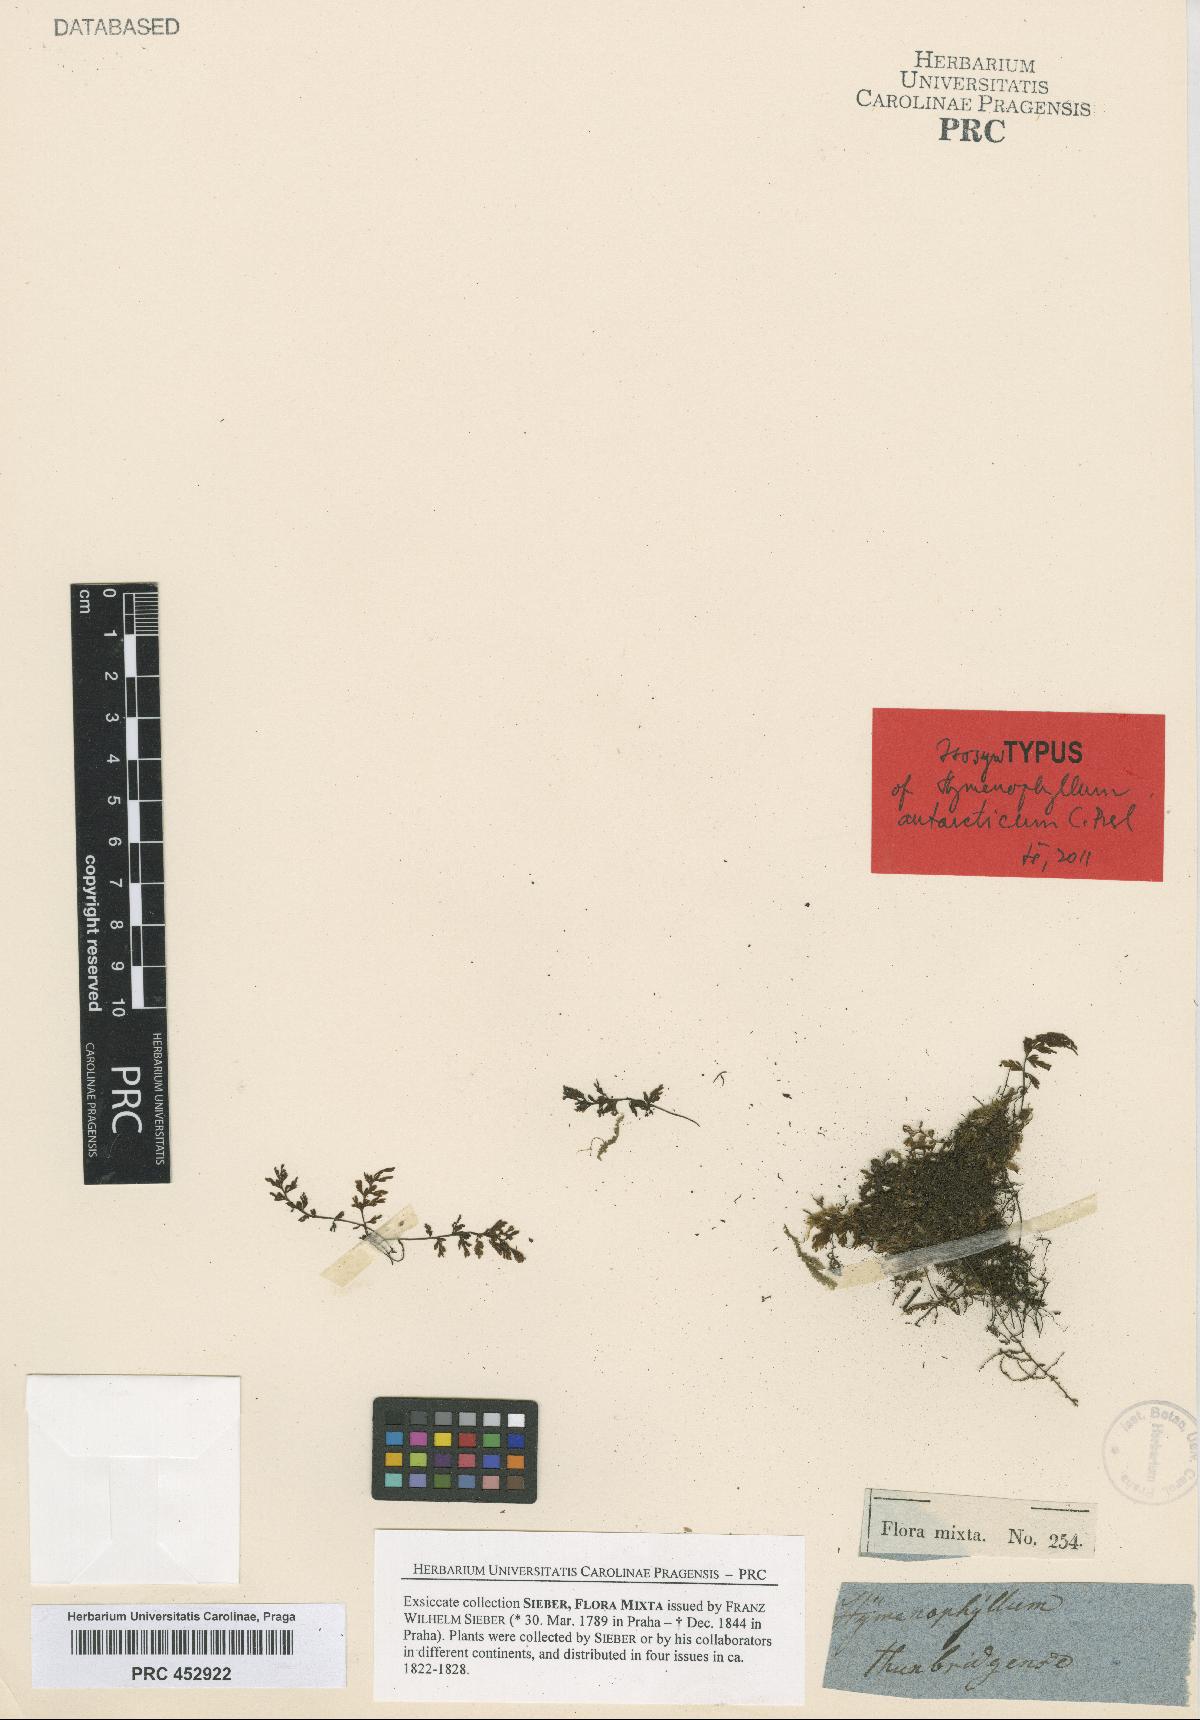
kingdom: Plantae
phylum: Tracheophyta
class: Polypodiopsida
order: Hymenophyllales
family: Hymenophyllaceae
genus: Hymenophyllum
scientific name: Hymenophyllum cupressiforme
